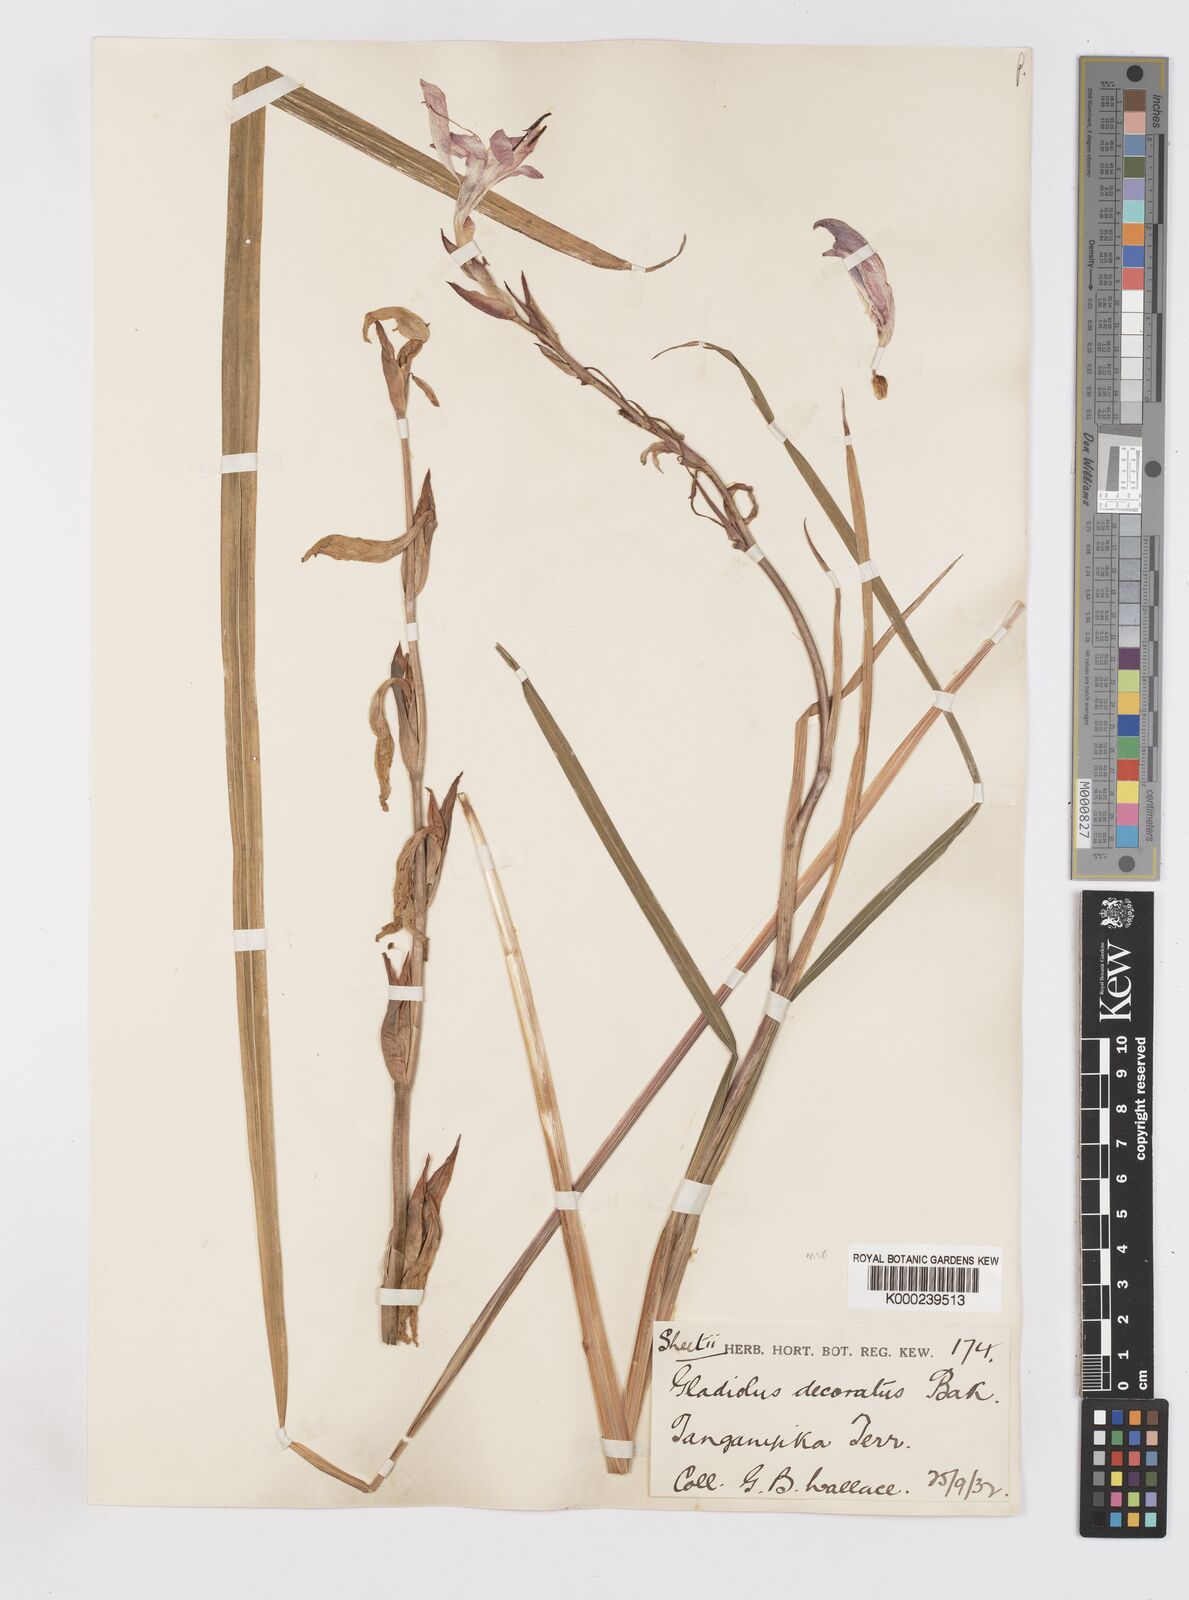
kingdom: Plantae
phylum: Tracheophyta
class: Liliopsida
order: Asparagales
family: Iridaceae
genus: Gladiolus
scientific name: Gladiolus rupicola
